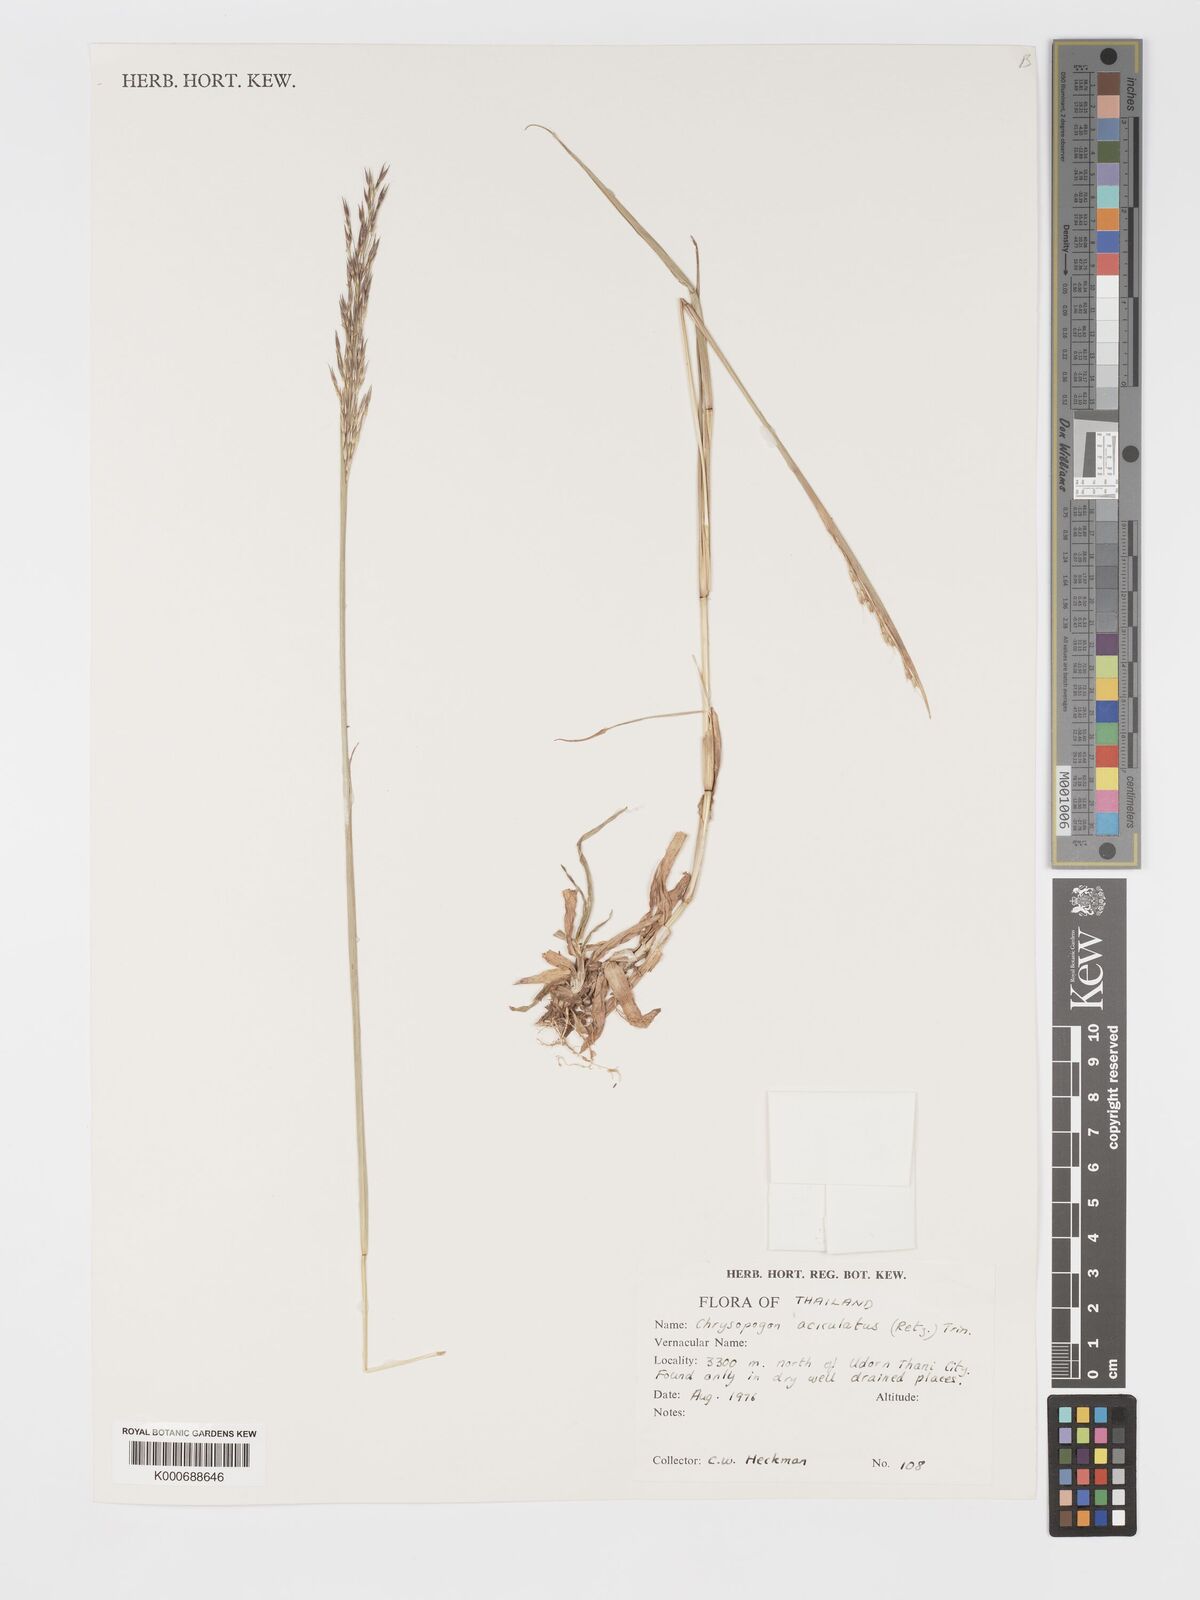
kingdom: Plantae
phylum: Tracheophyta
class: Liliopsida
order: Poales
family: Poaceae
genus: Chrysopogon
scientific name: Chrysopogon aciculatus
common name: Pilipiliula
